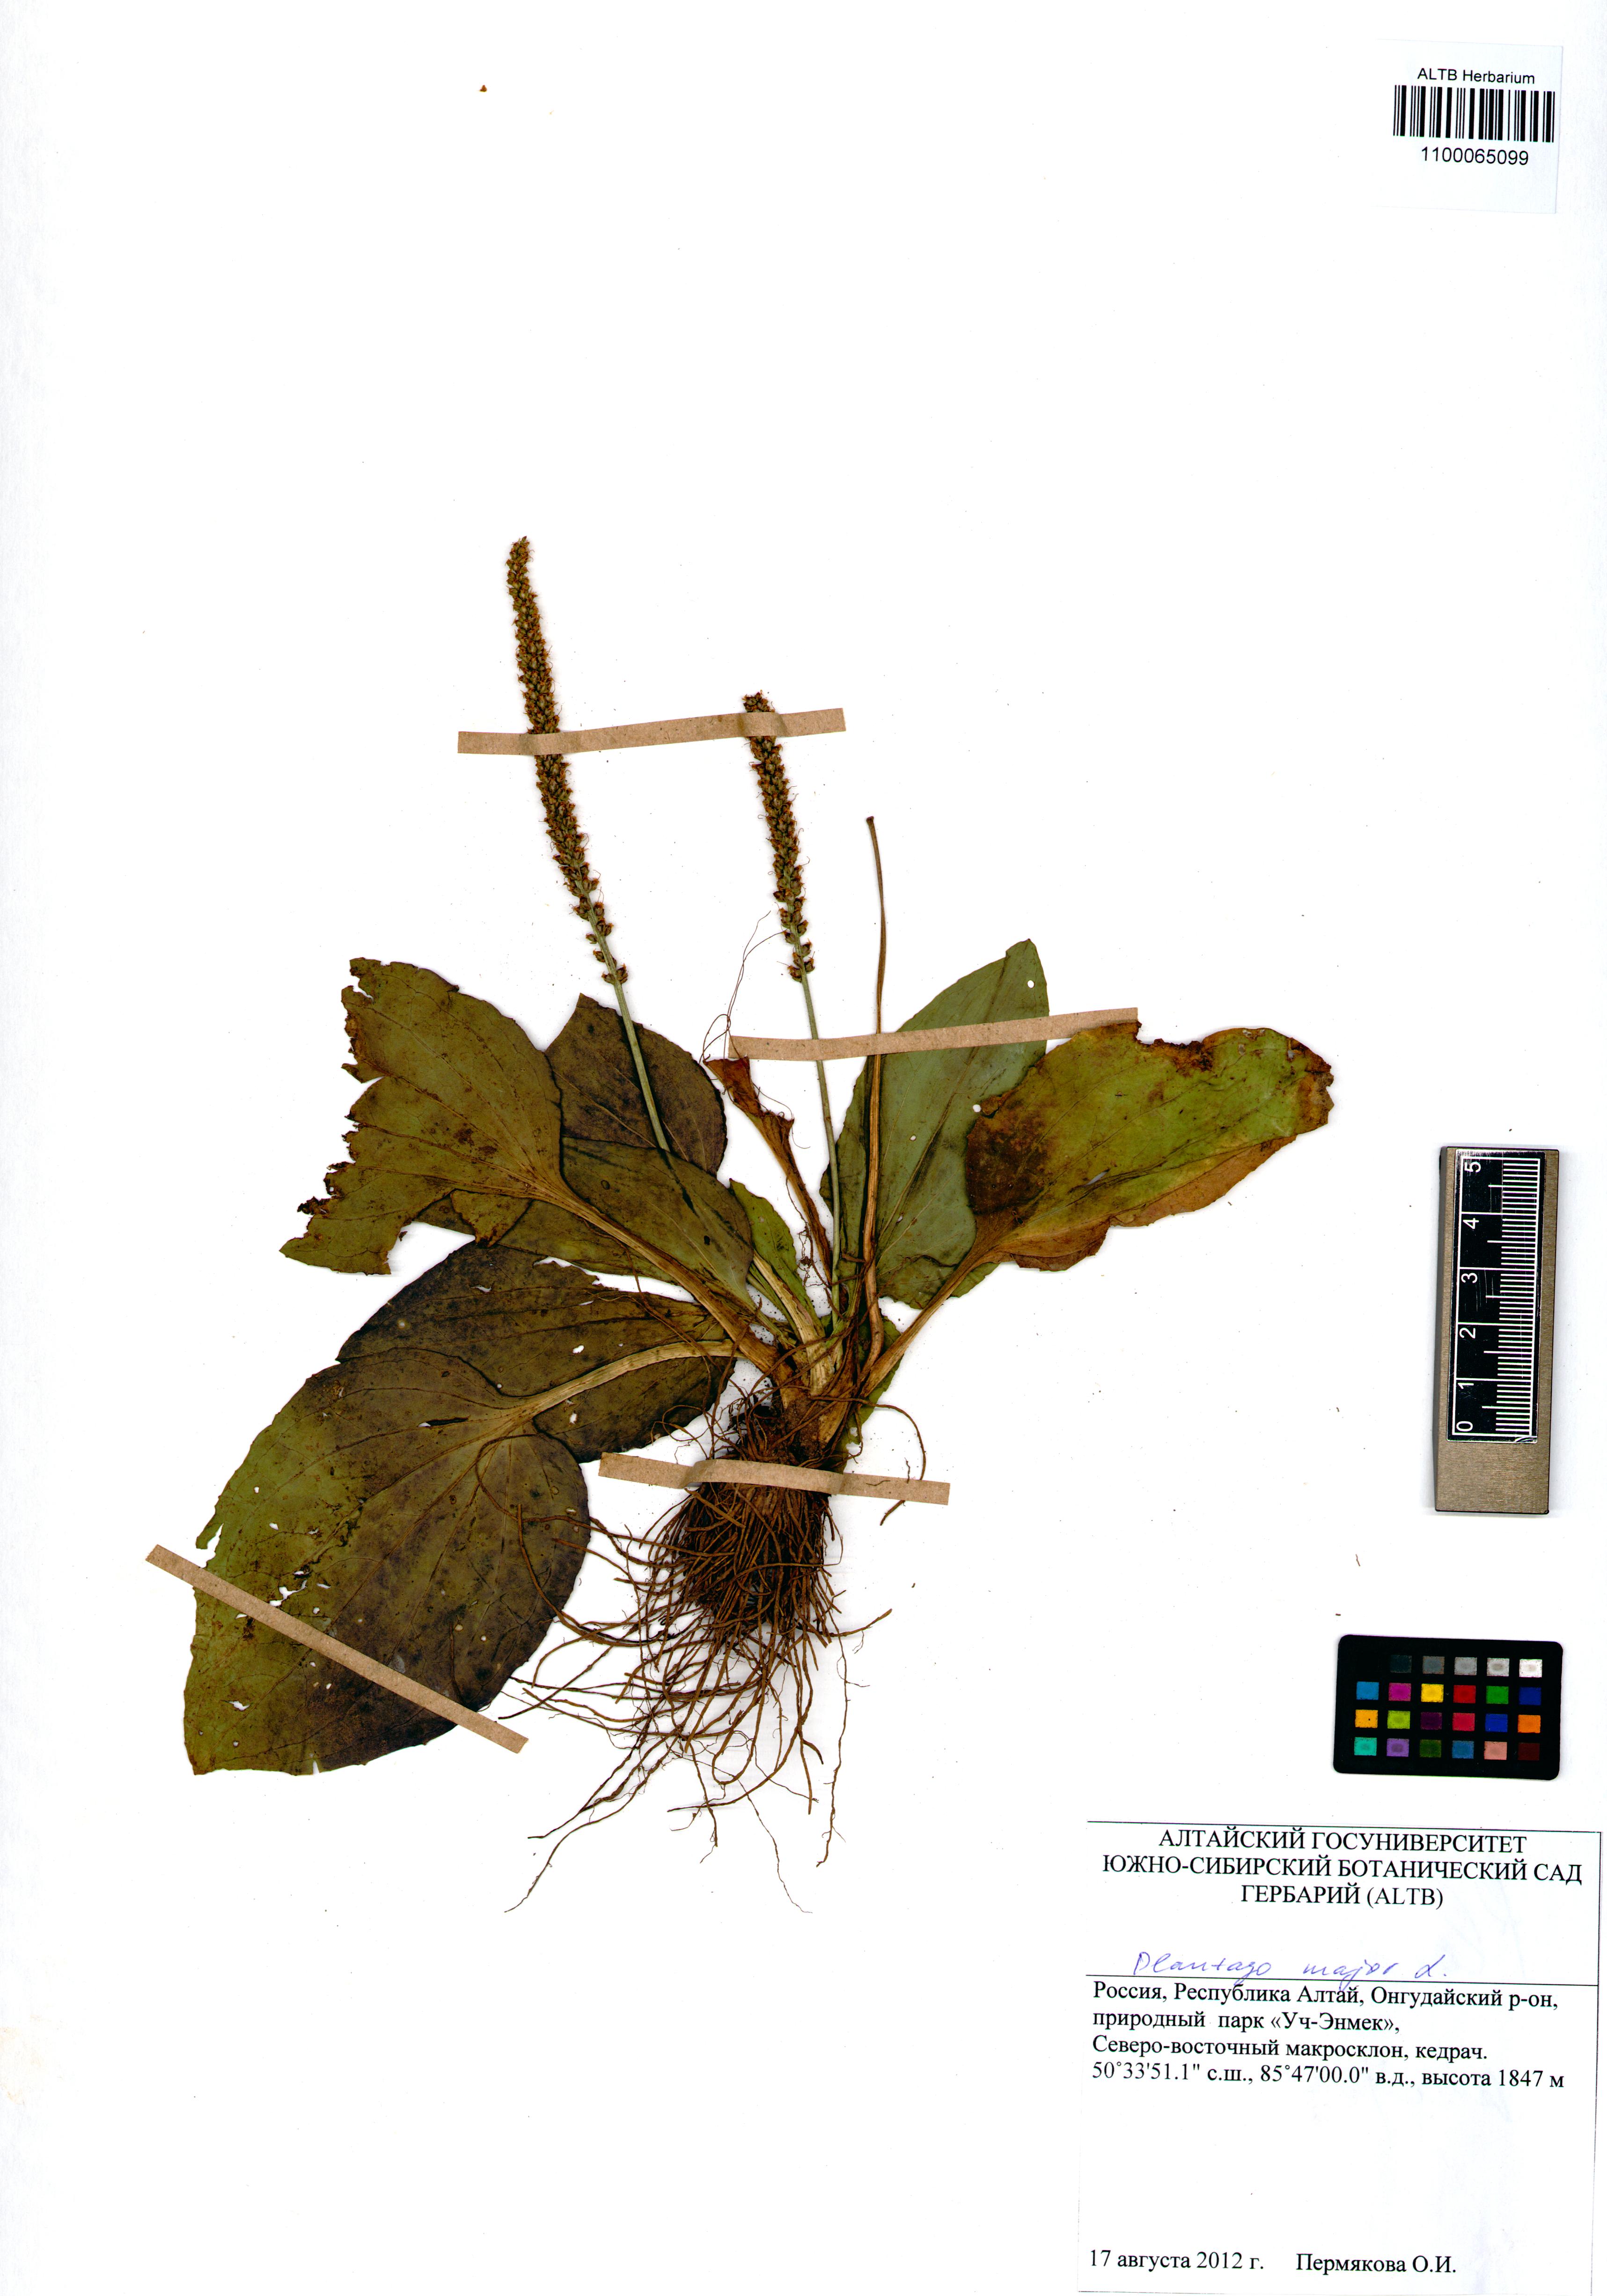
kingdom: Plantae
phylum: Tracheophyta
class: Magnoliopsida
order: Lamiales
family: Plantaginaceae
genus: Plantago
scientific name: Plantago major
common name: Common plantain
